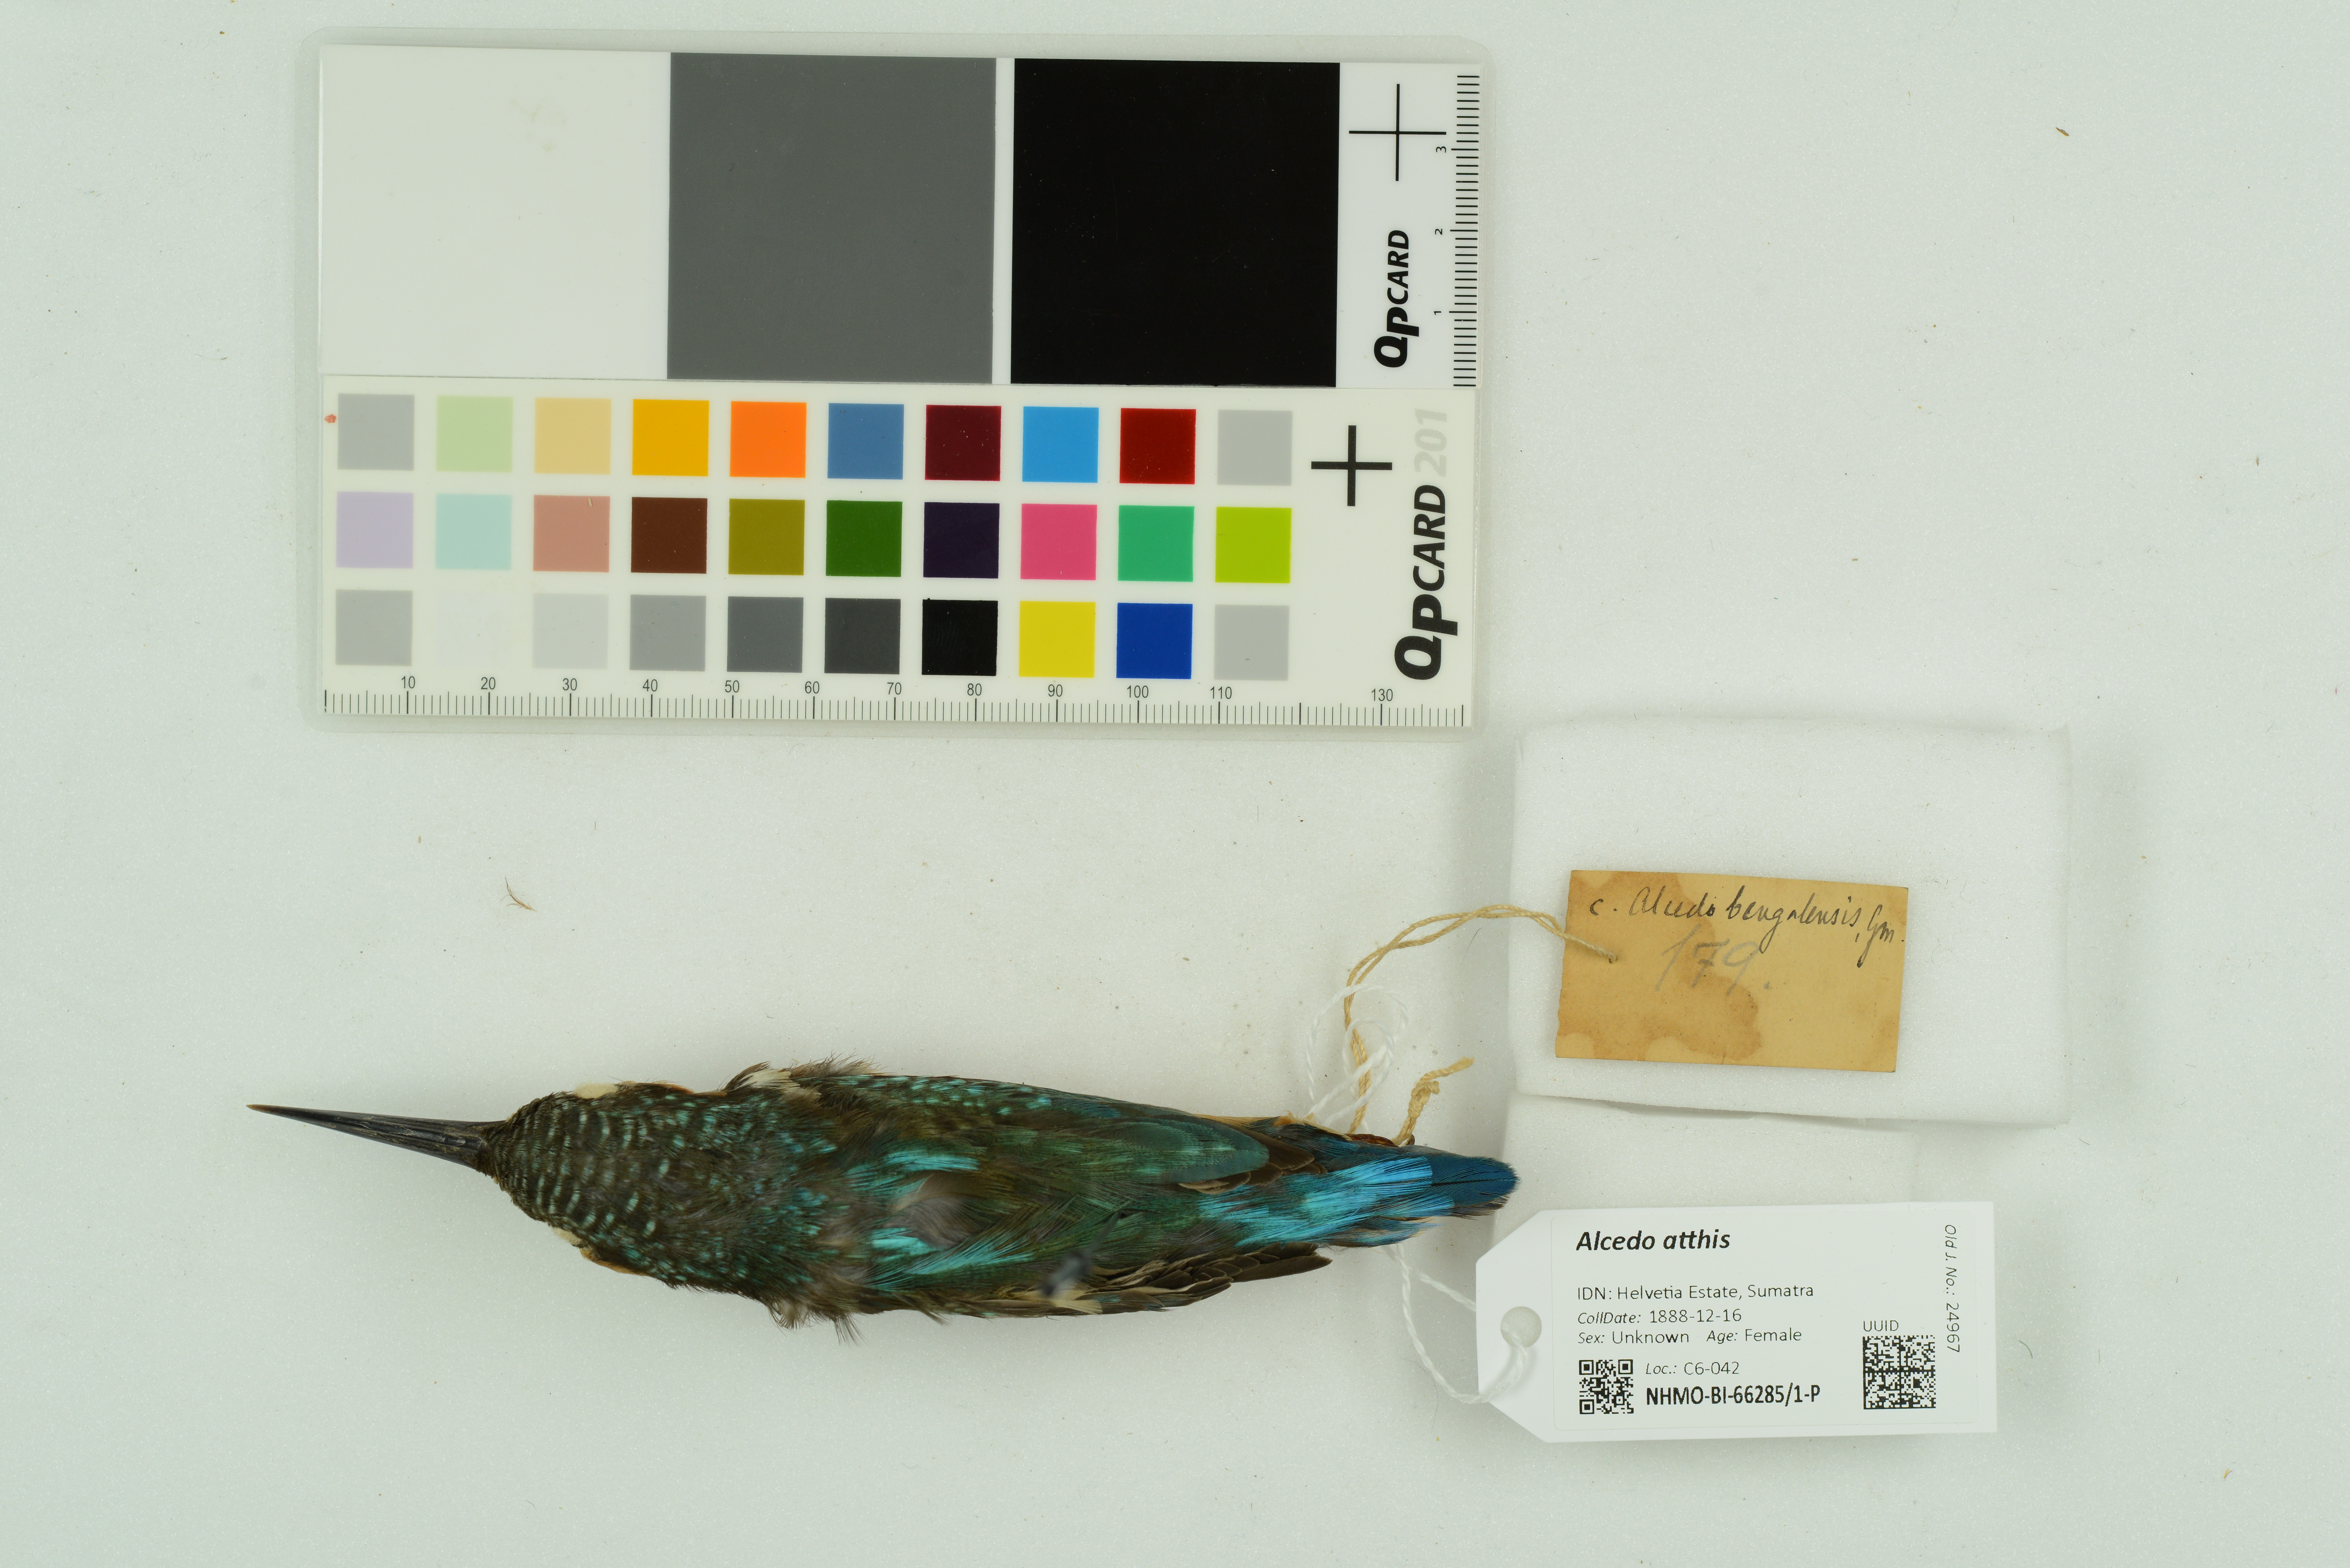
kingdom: Animalia
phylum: Chordata
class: Aves
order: Coraciiformes
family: Alcedinidae
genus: Alcedo
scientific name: Alcedo atthis
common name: Common kingfisher
